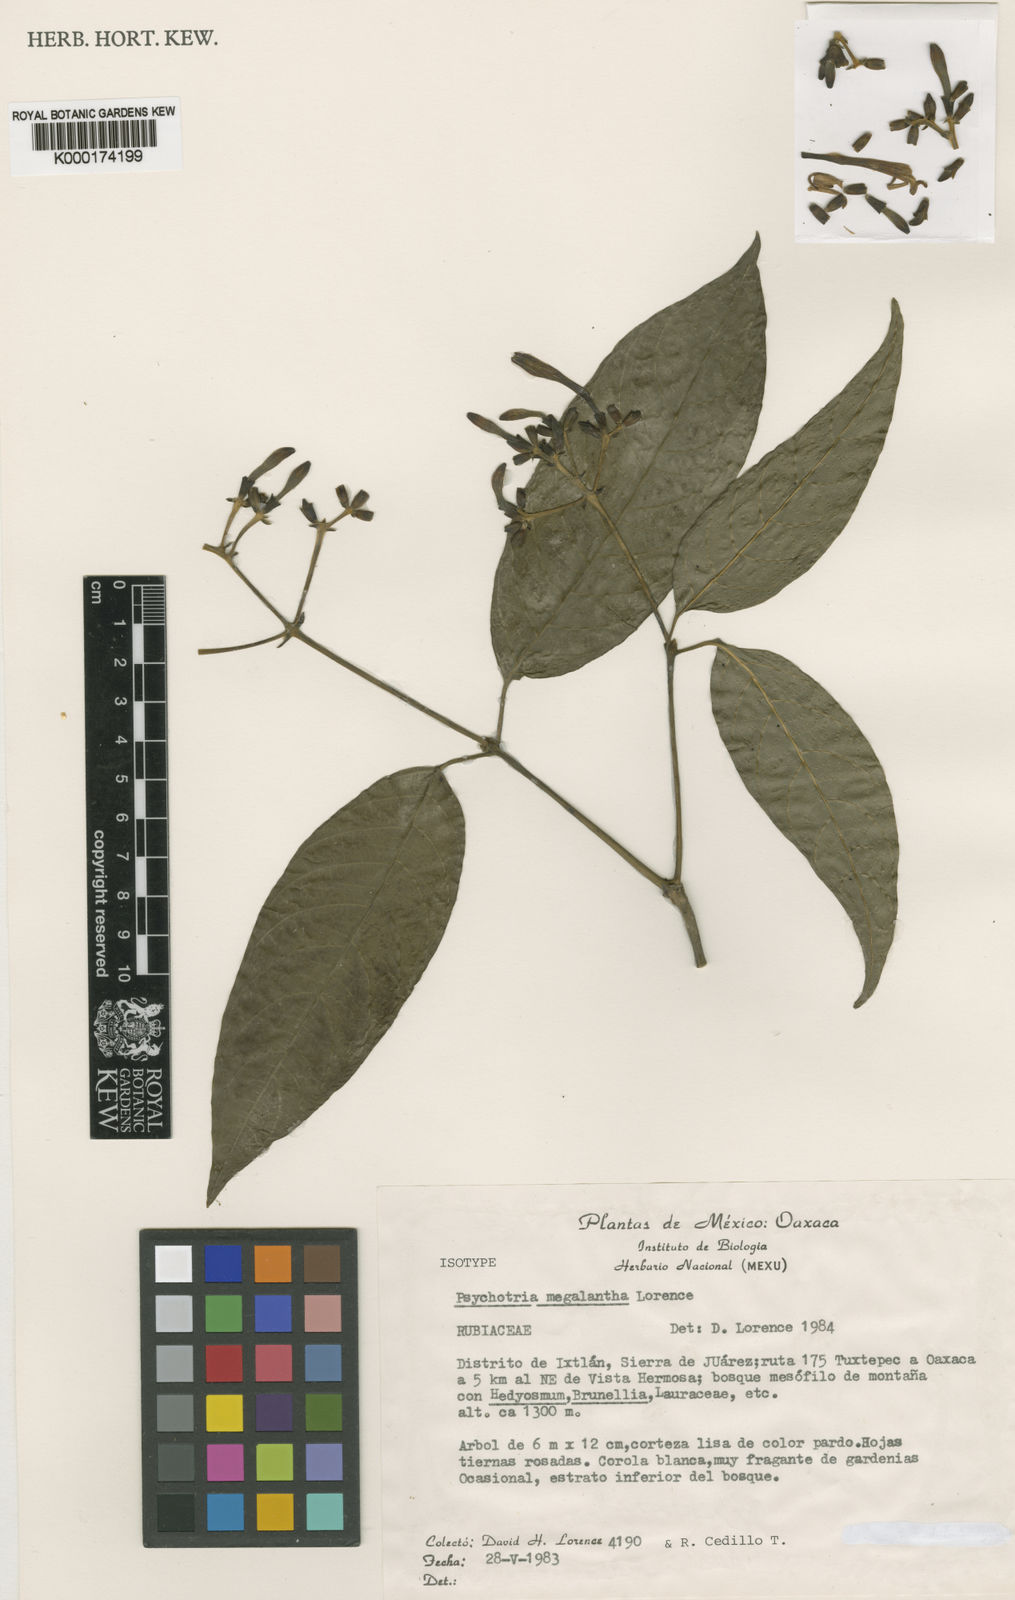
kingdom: Plantae
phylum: Tracheophyta
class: Magnoliopsida
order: Gentianales
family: Rubiaceae
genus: Palicourea
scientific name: Palicourea megalantha
